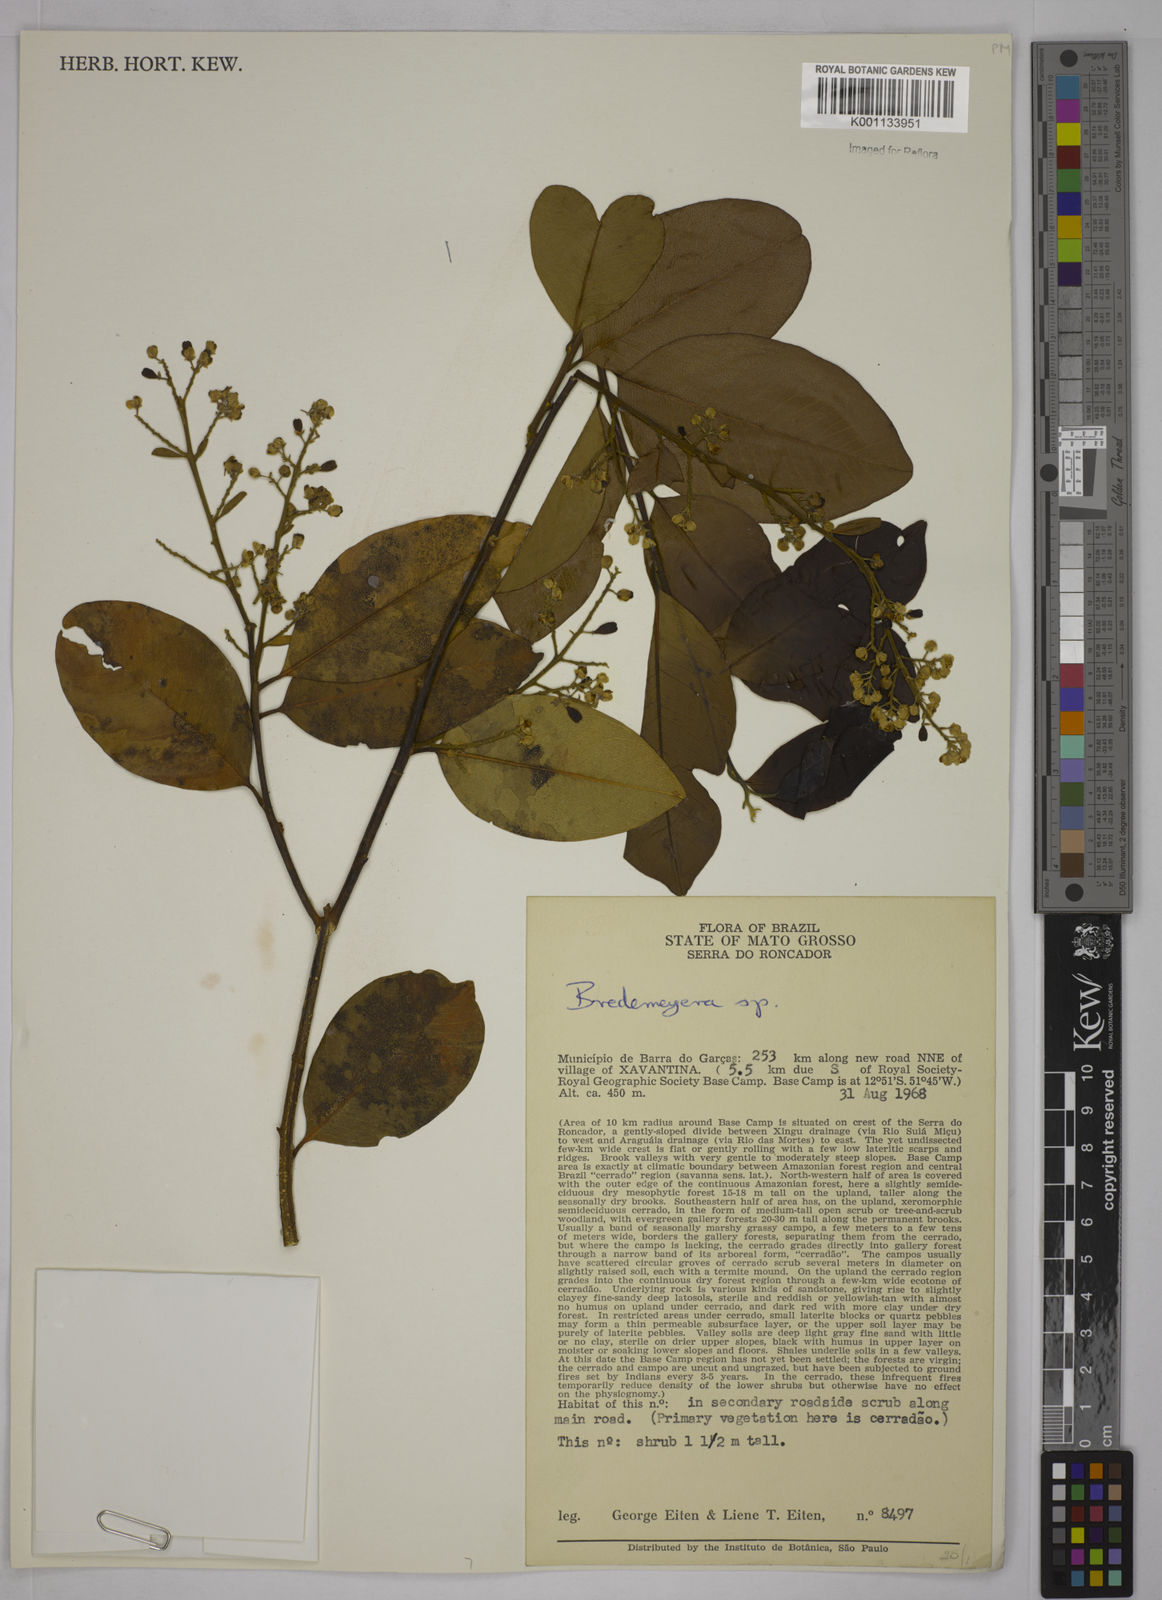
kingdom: Plantae
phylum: Tracheophyta
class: Magnoliopsida
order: Fabales
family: Polygalaceae
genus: Bredemeyera
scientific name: Bredemeyera
